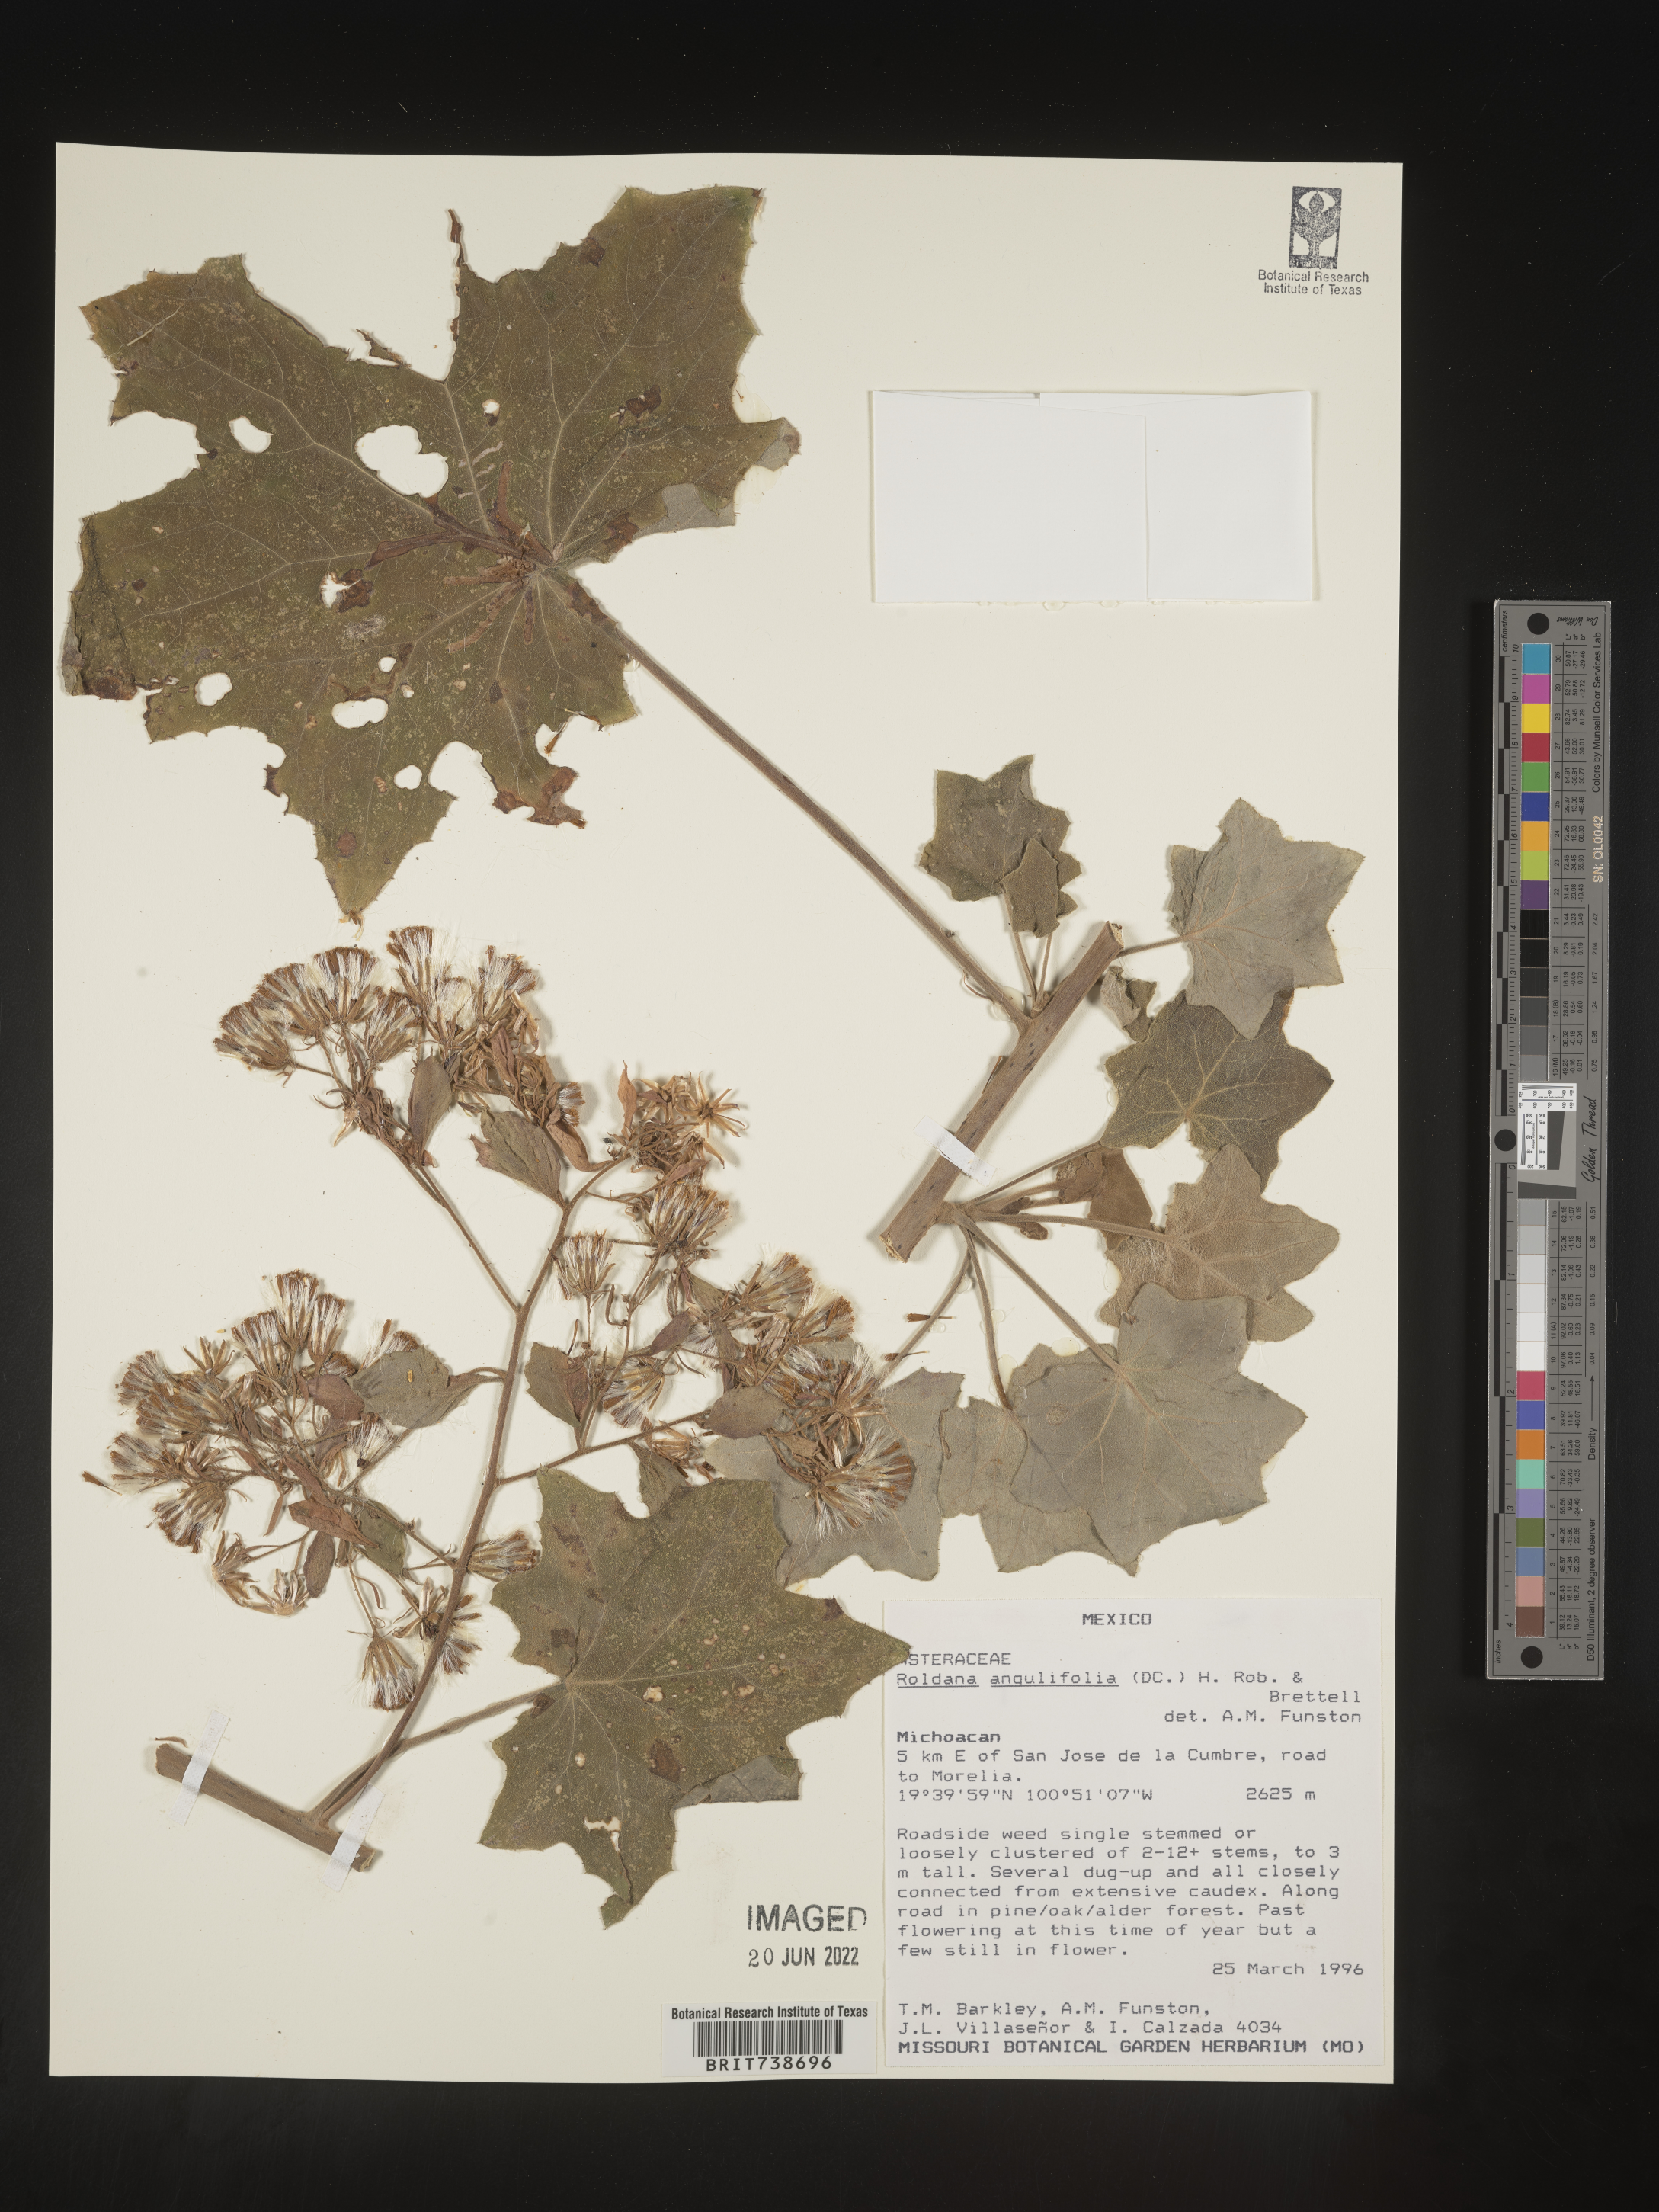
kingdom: Plantae
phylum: Tracheophyta
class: Magnoliopsida
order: Asterales
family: Asteraceae
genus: Roldana
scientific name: Roldana
